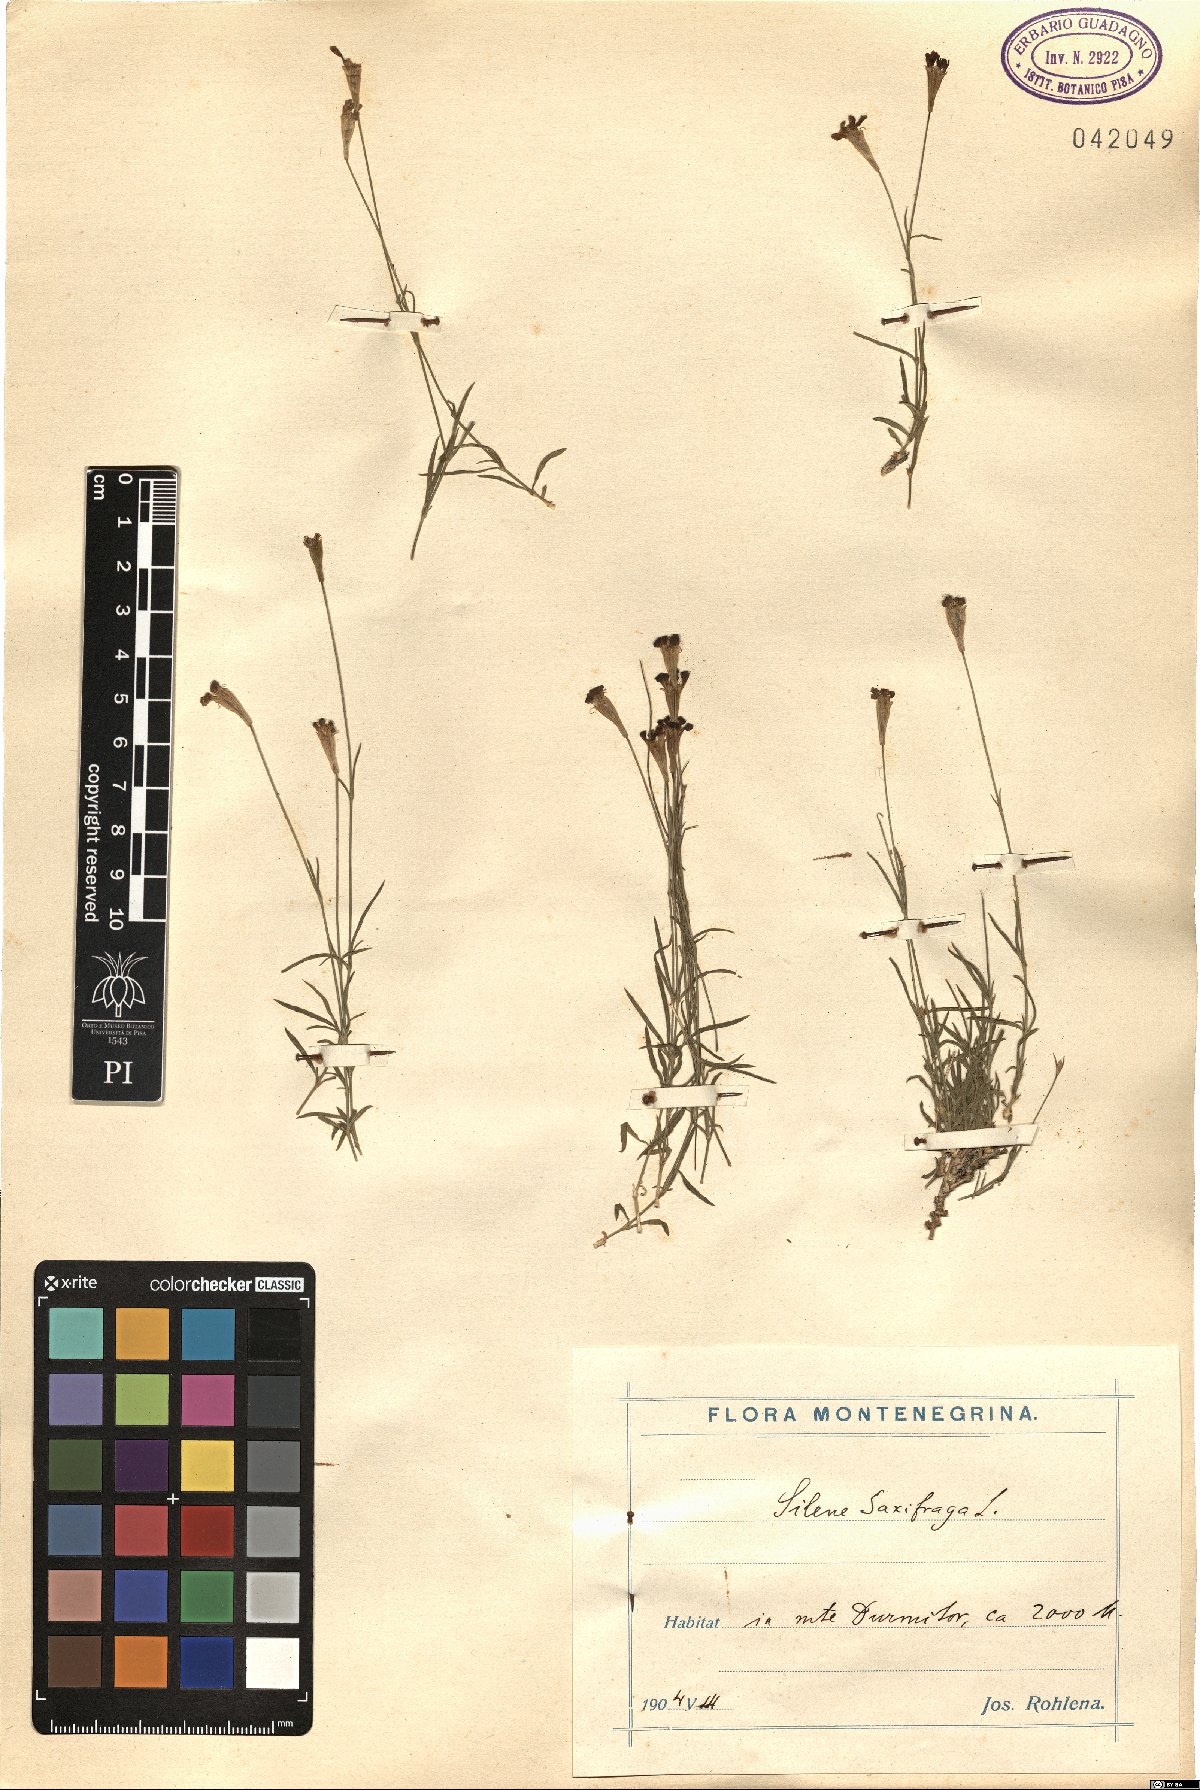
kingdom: Plantae
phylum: Tracheophyta
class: Magnoliopsida
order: Caryophyllales
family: Caryophyllaceae
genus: Silene
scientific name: Silene saxifraga
